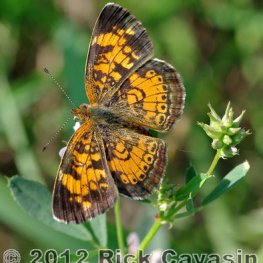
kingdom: Animalia
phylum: Arthropoda
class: Insecta
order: Lepidoptera
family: Nymphalidae
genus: Phyciodes
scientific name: Phyciodes tharos
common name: Pearl Crescent
